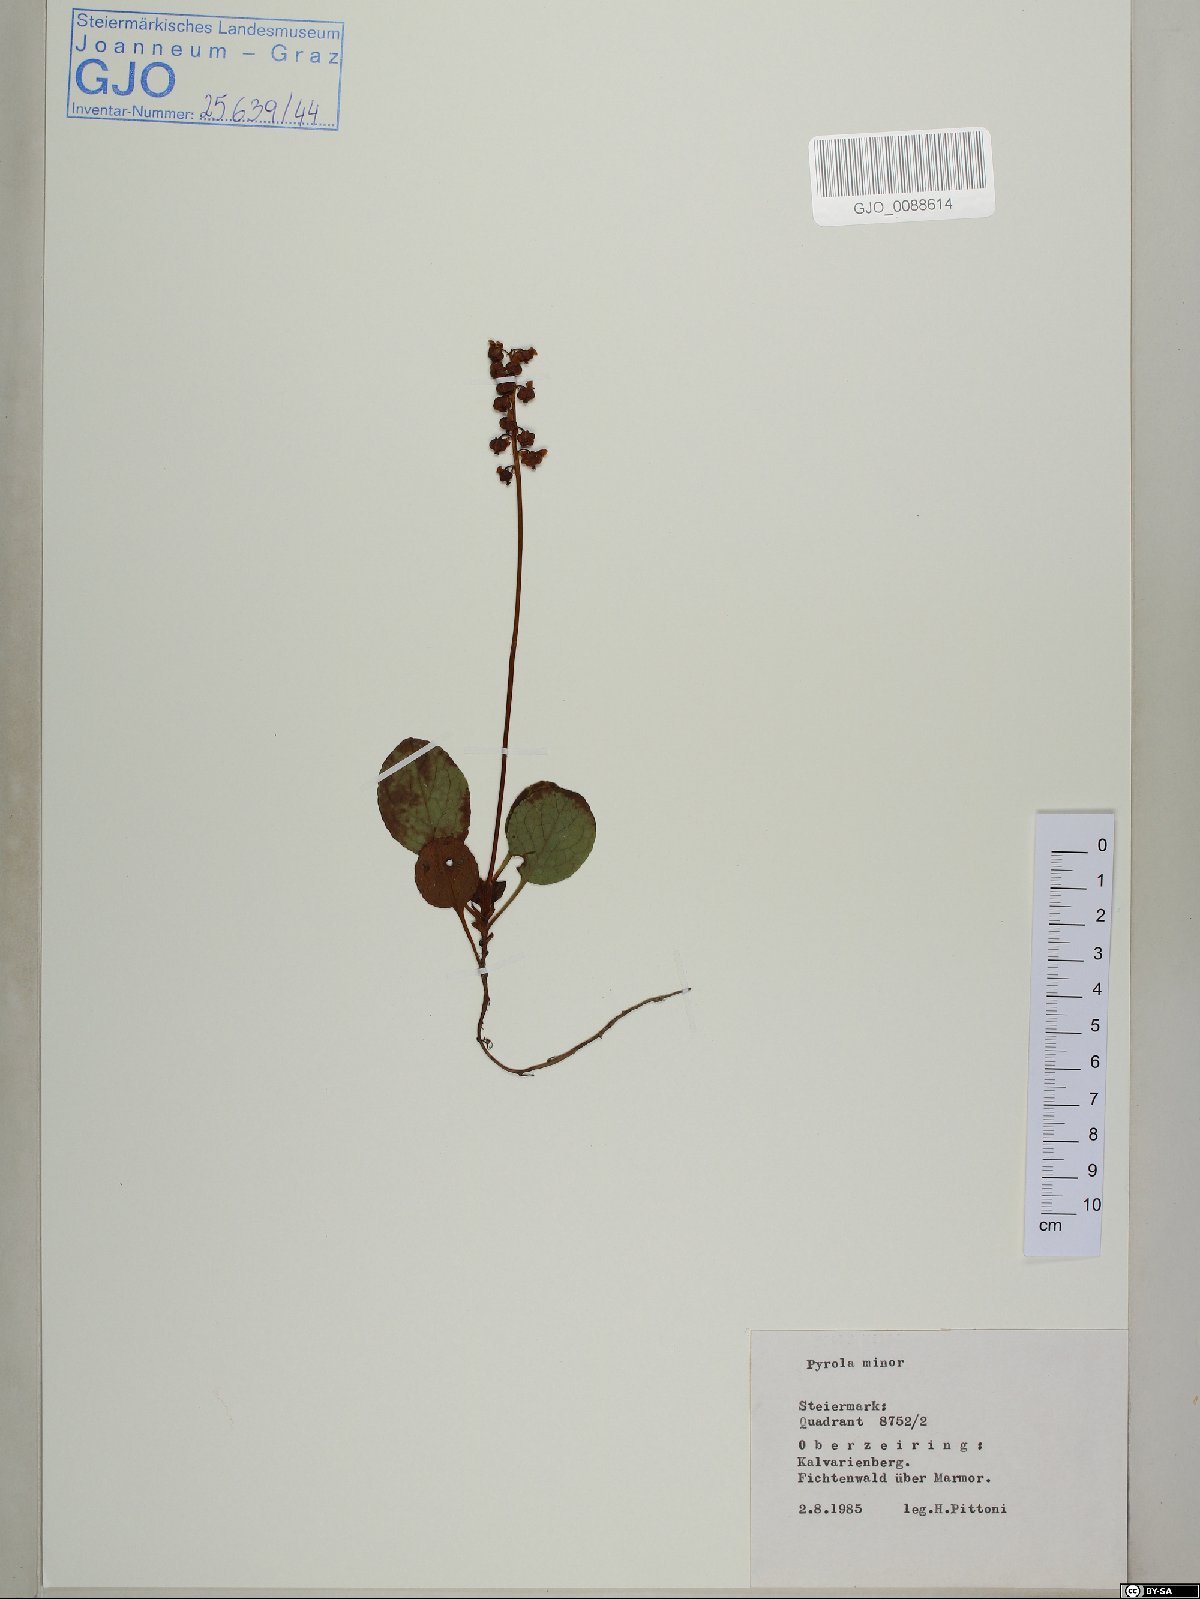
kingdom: Plantae
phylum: Tracheophyta
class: Magnoliopsida
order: Ericales
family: Ericaceae
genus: Pyrola
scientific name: Pyrola minor
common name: Common wintergreen
